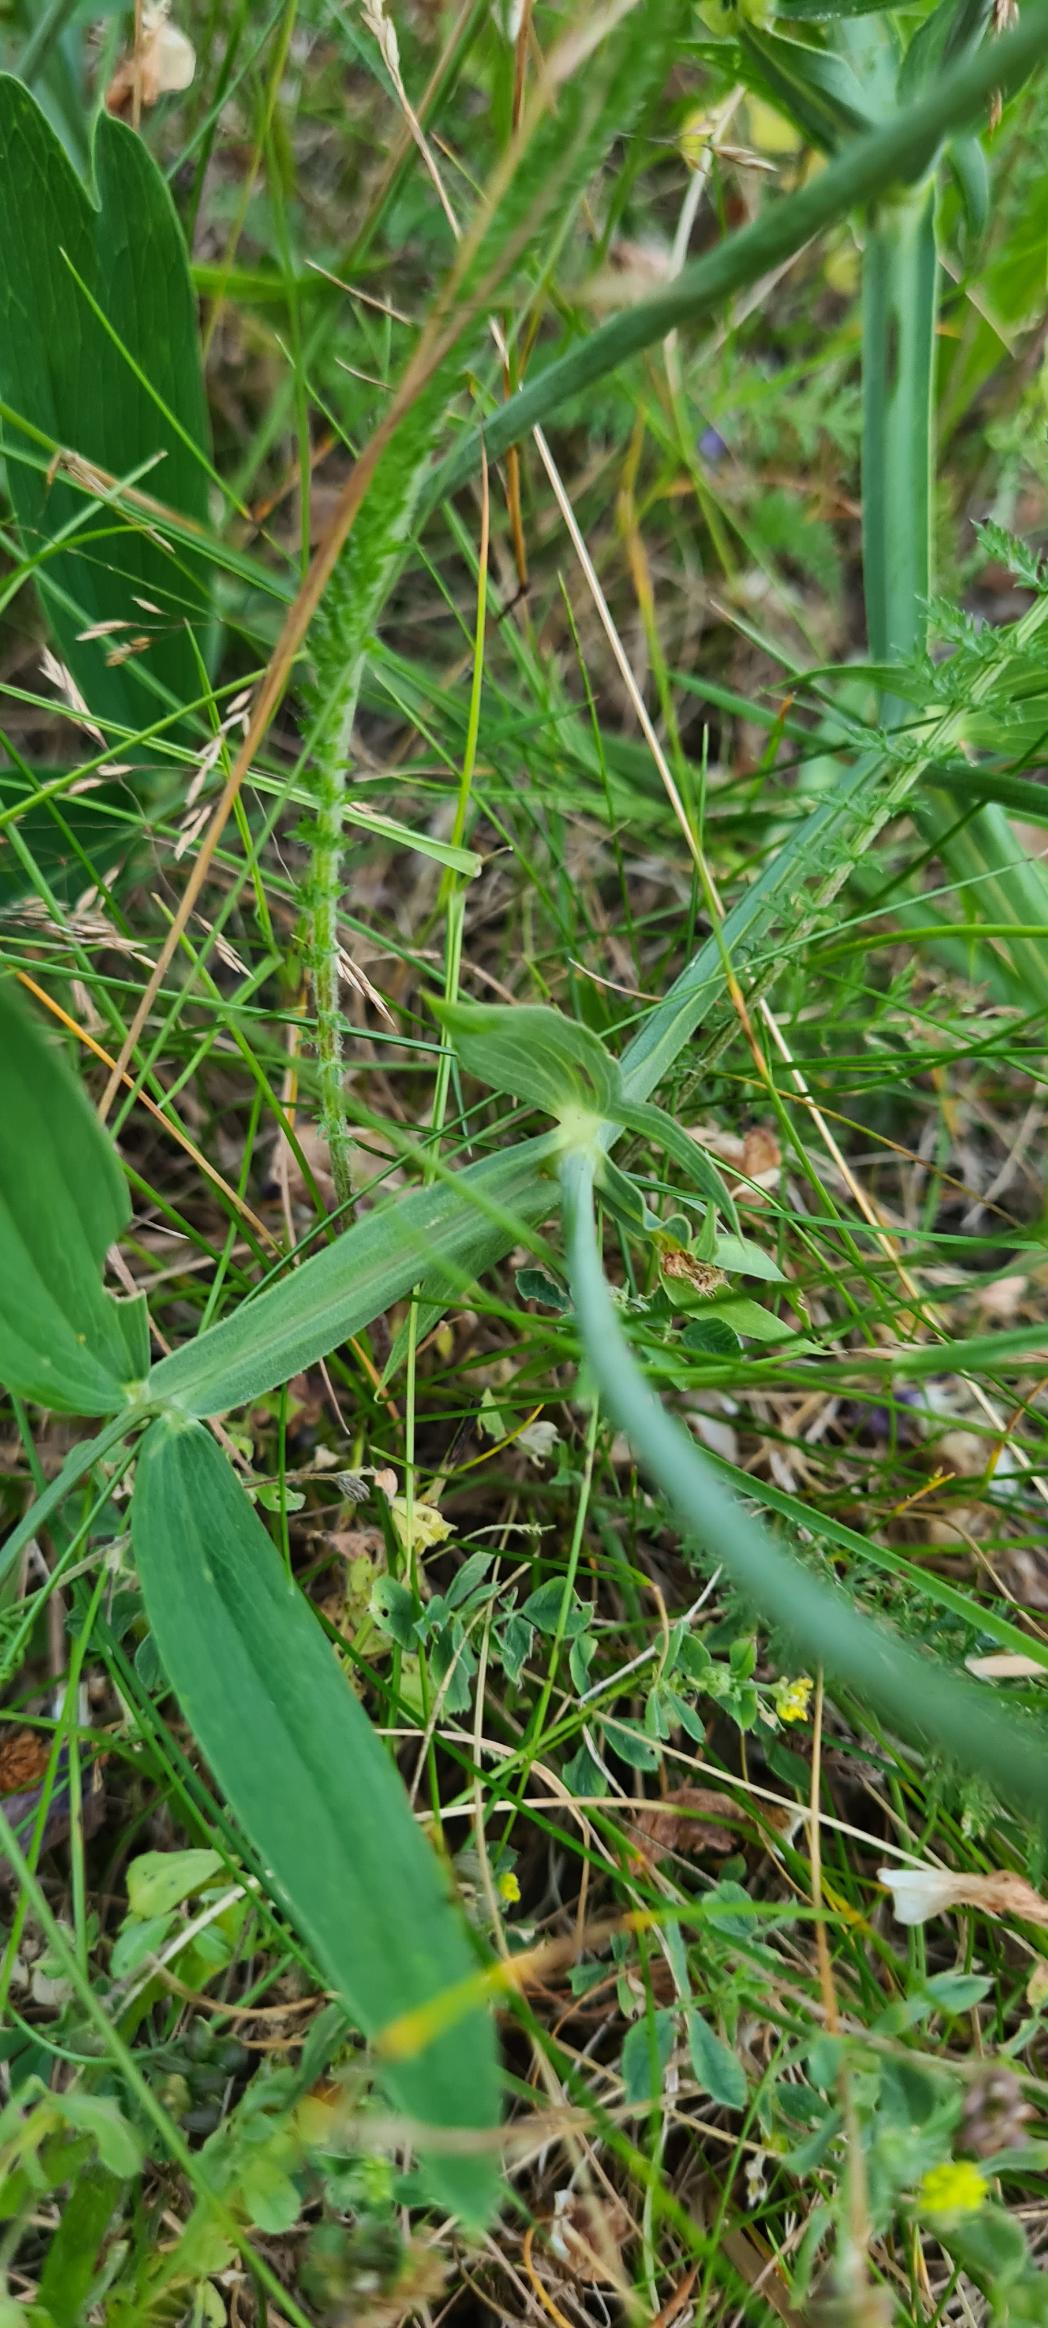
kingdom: Plantae
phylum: Tracheophyta
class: Magnoliopsida
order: Fabales
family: Fabaceae
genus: Lathyrus
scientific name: Lathyrus latifolius
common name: Flerårig ærteblomst
